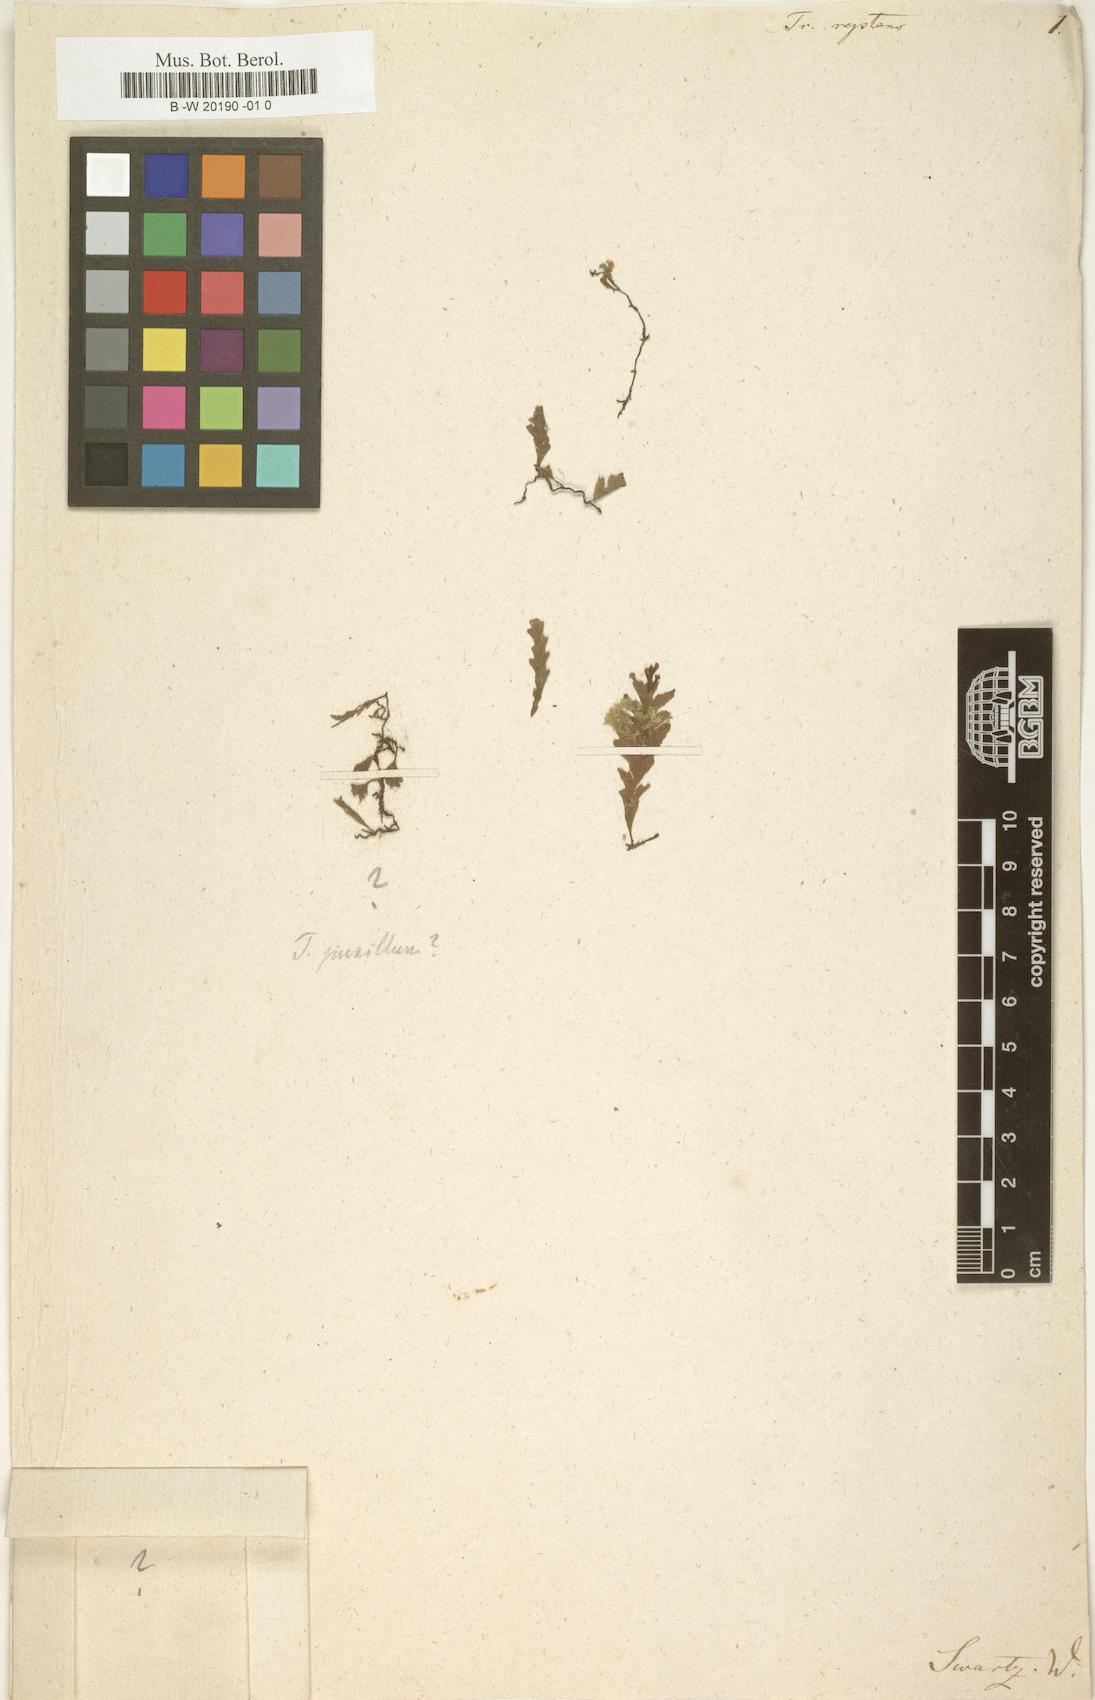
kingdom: Plantae
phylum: Tracheophyta
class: Polypodiopsida
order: Hymenophyllales
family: Hymenophyllaceae
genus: Trichomanes
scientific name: Trichomanes reptans
